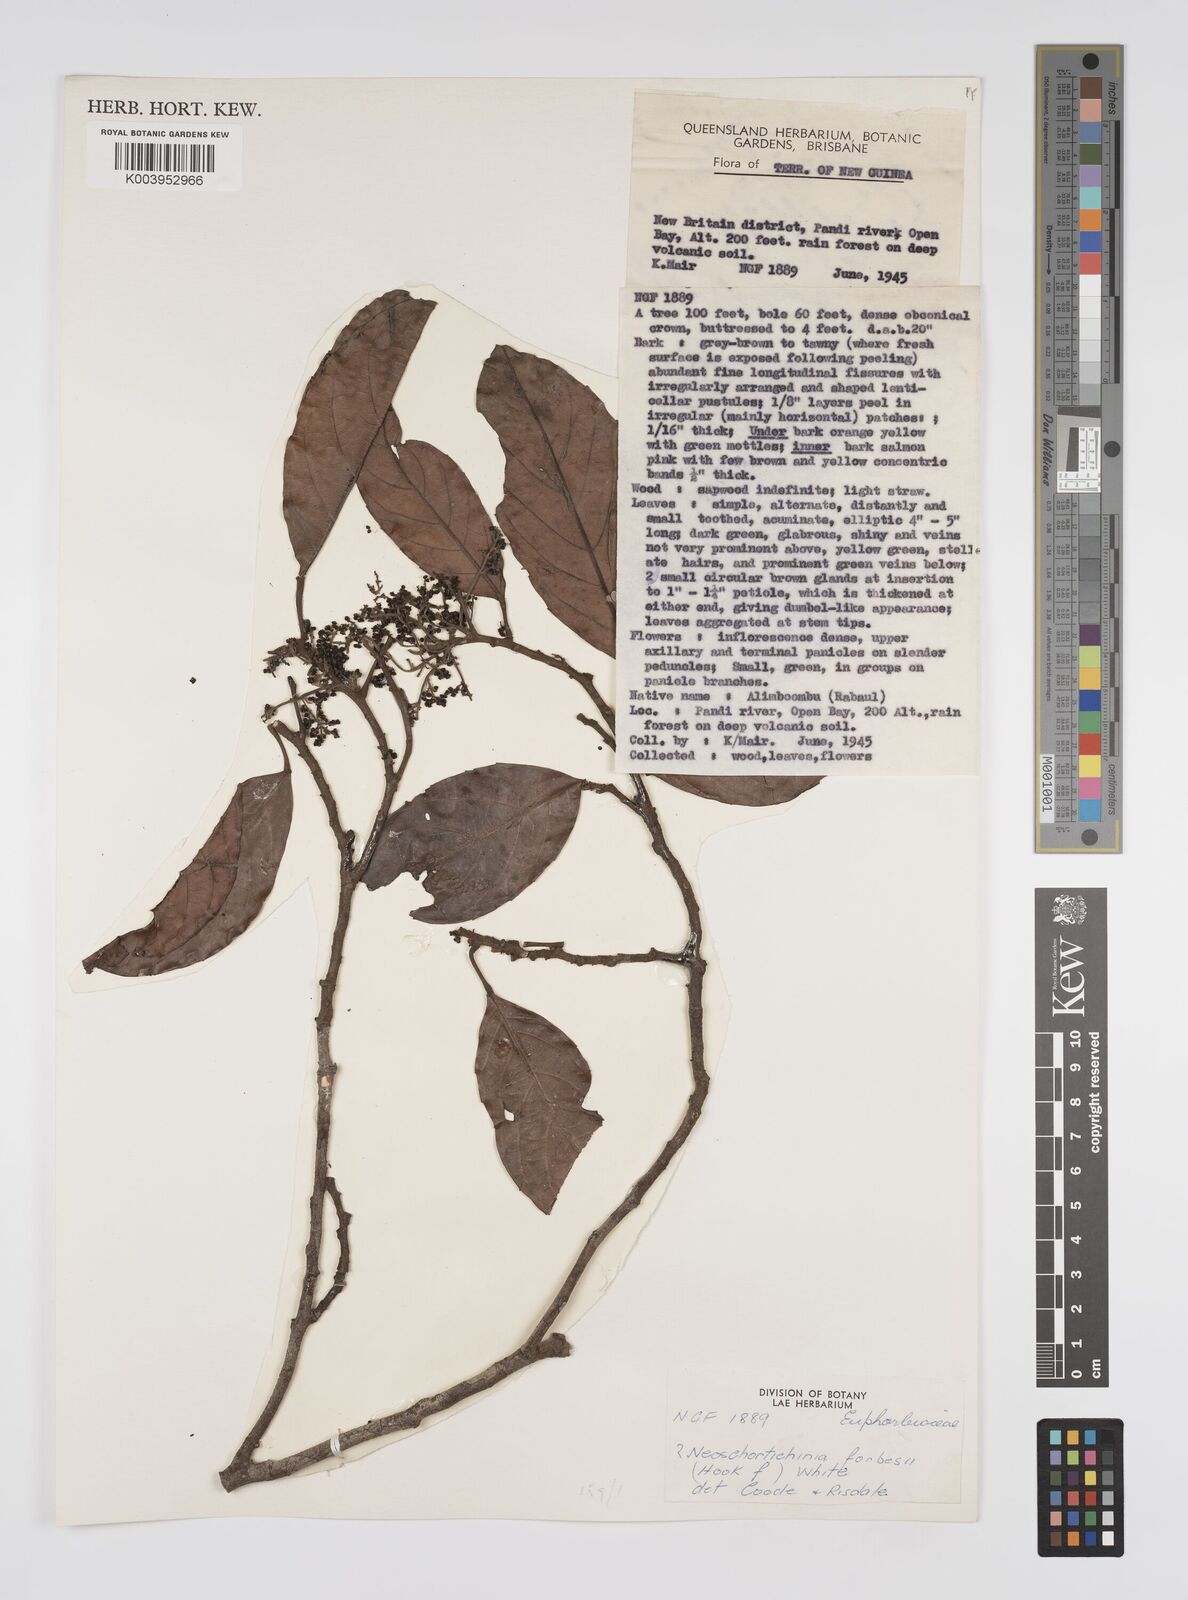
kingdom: Plantae
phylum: Tracheophyta
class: Magnoliopsida
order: Malpighiales
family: Euphorbiaceae
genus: Neoscortechinia
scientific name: Neoscortechinia forbesii
